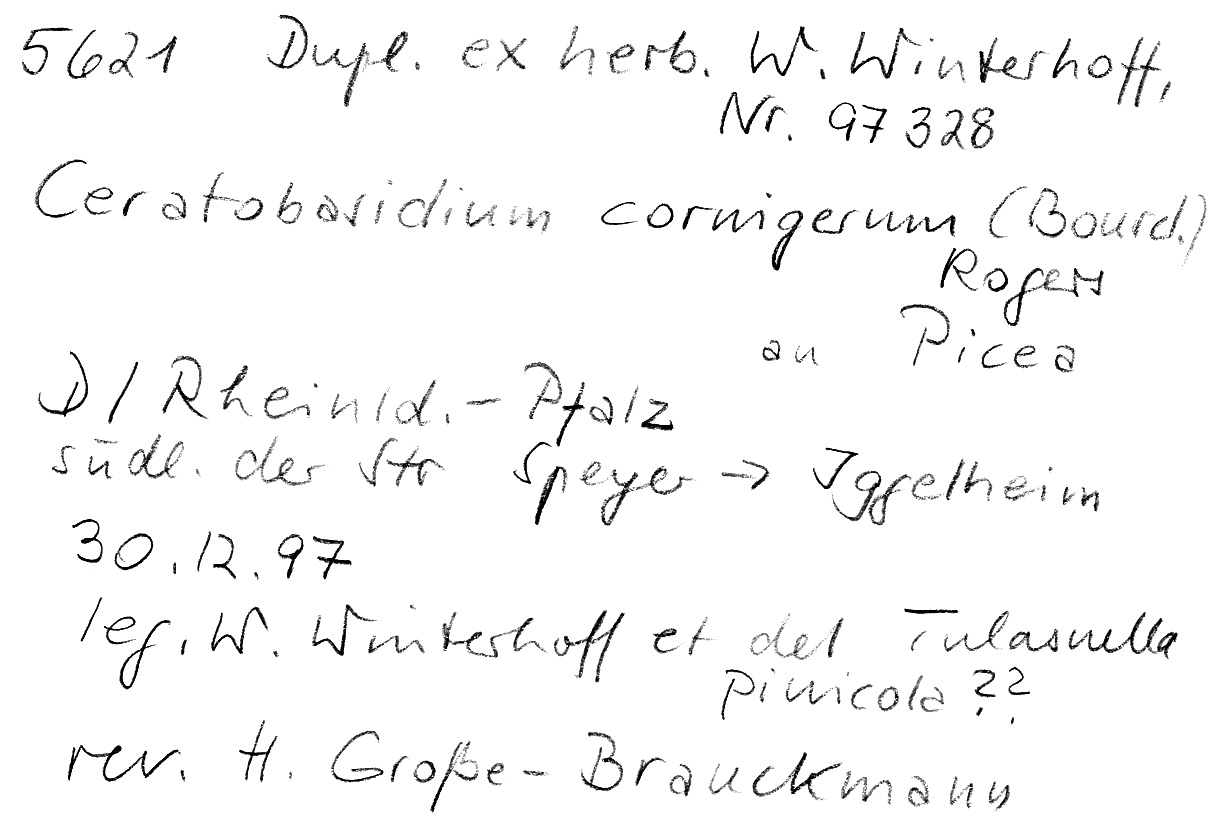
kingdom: Plantae
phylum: Tracheophyta
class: Pinopsida
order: Pinales
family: Pinaceae
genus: Picea
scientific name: Picea
